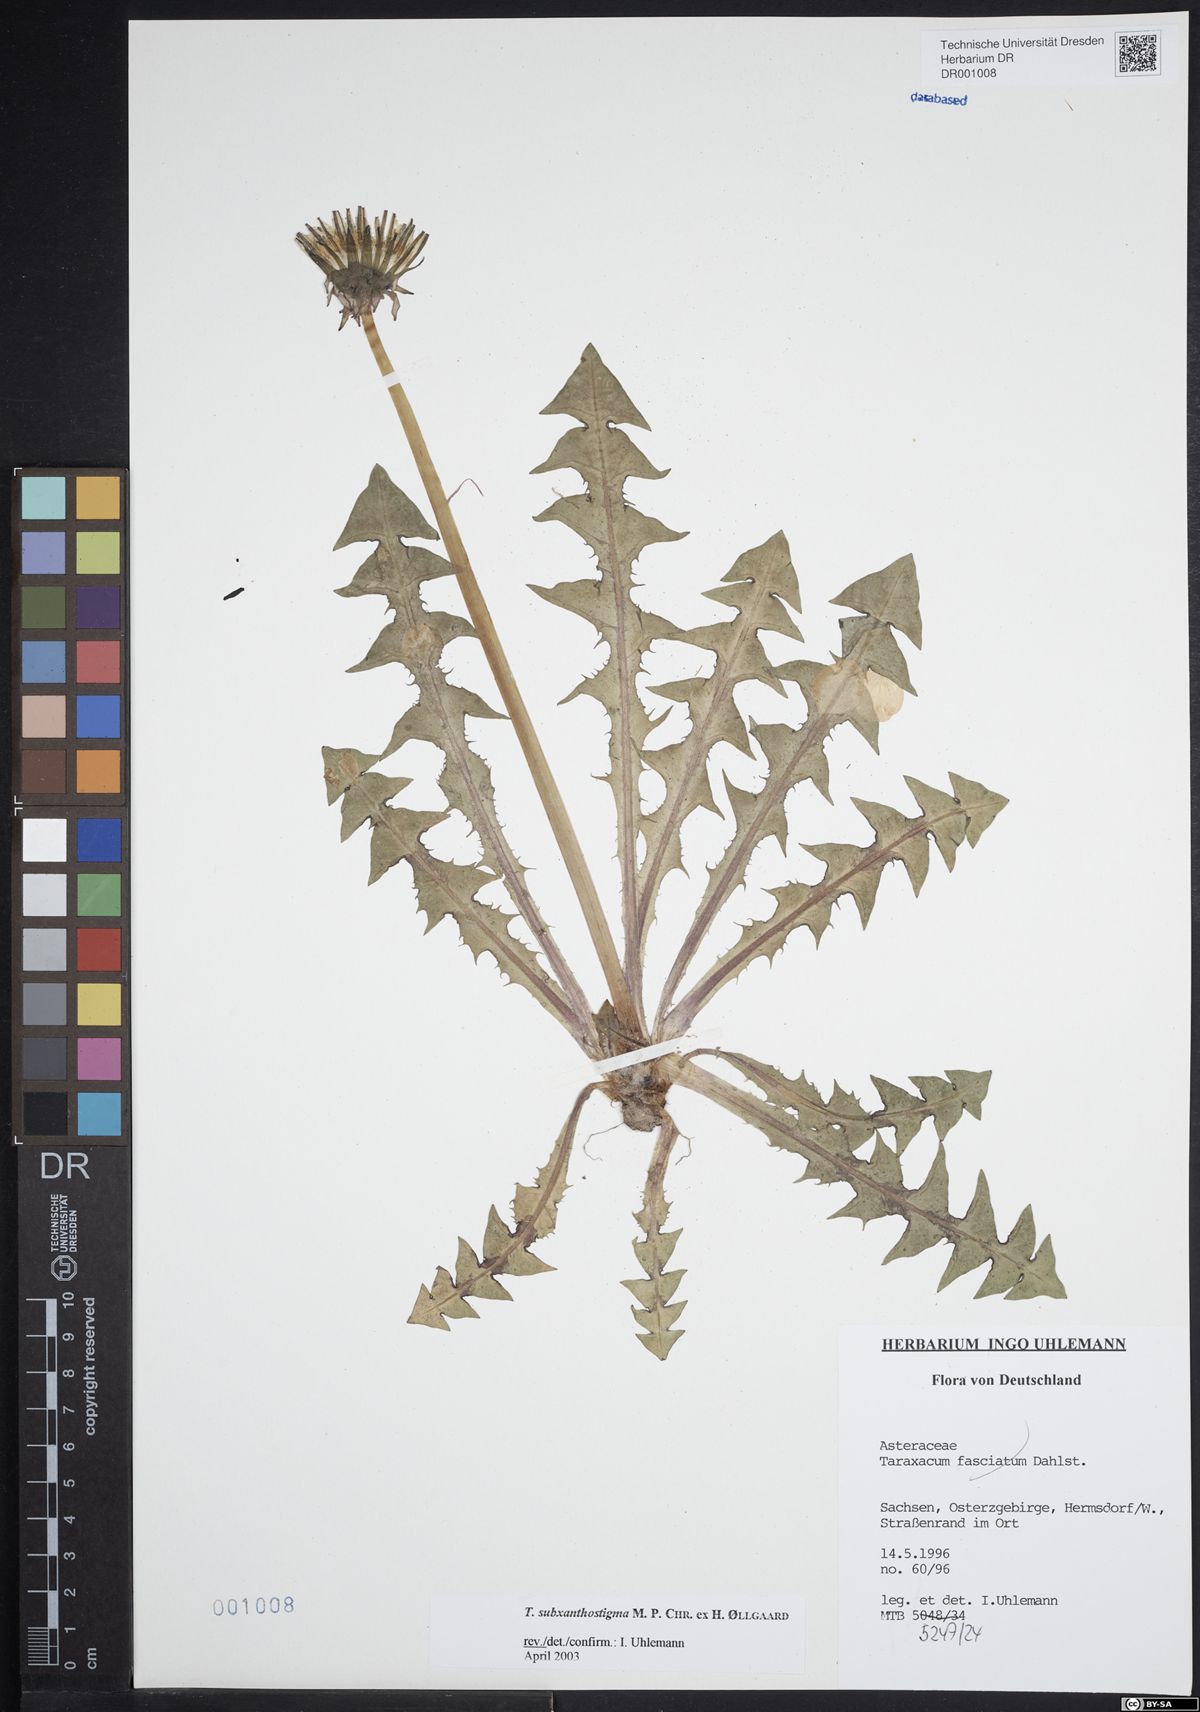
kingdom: Plantae
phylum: Tracheophyta
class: Magnoliopsida
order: Asterales
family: Asteraceae
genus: Taraxacum
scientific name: Taraxacum subxanthostigma
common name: Purple-stalked dandelion
